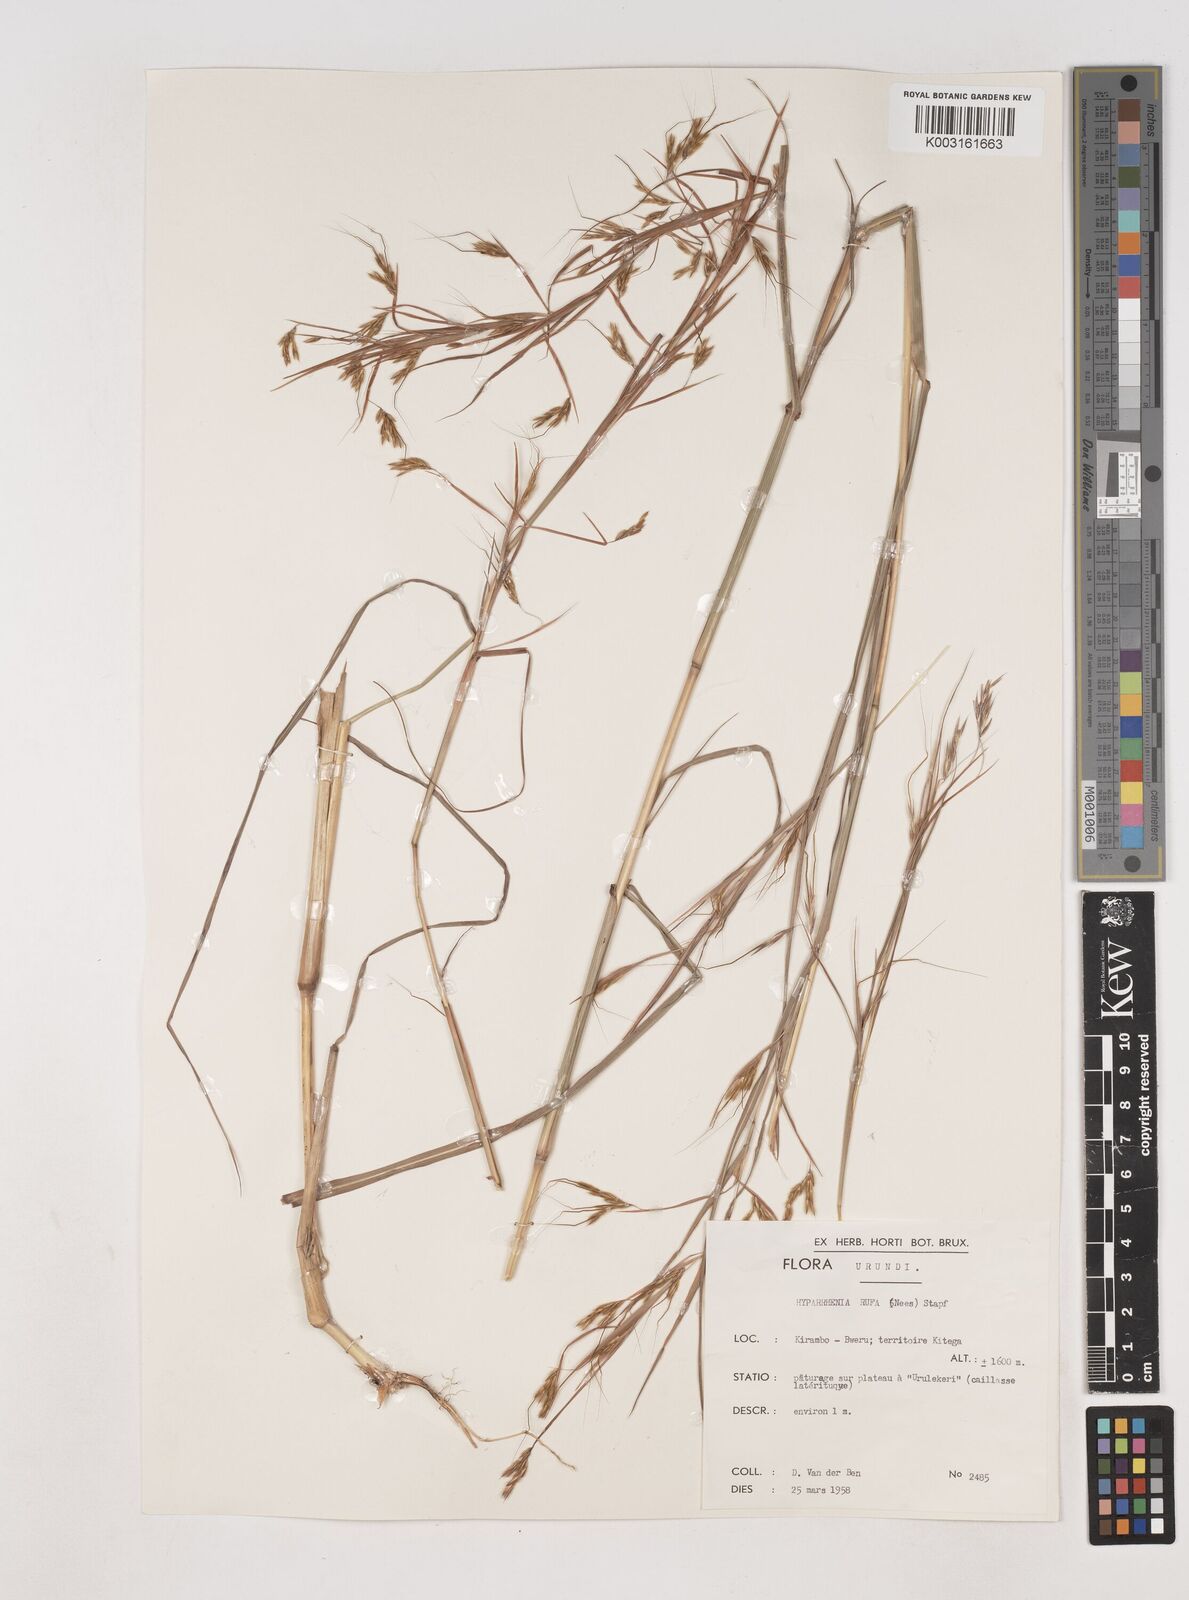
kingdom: Plantae
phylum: Tracheophyta
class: Liliopsida
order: Poales
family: Poaceae
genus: Hyparrhenia
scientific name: Hyparrhenia rufa
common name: Jaraguagrass
